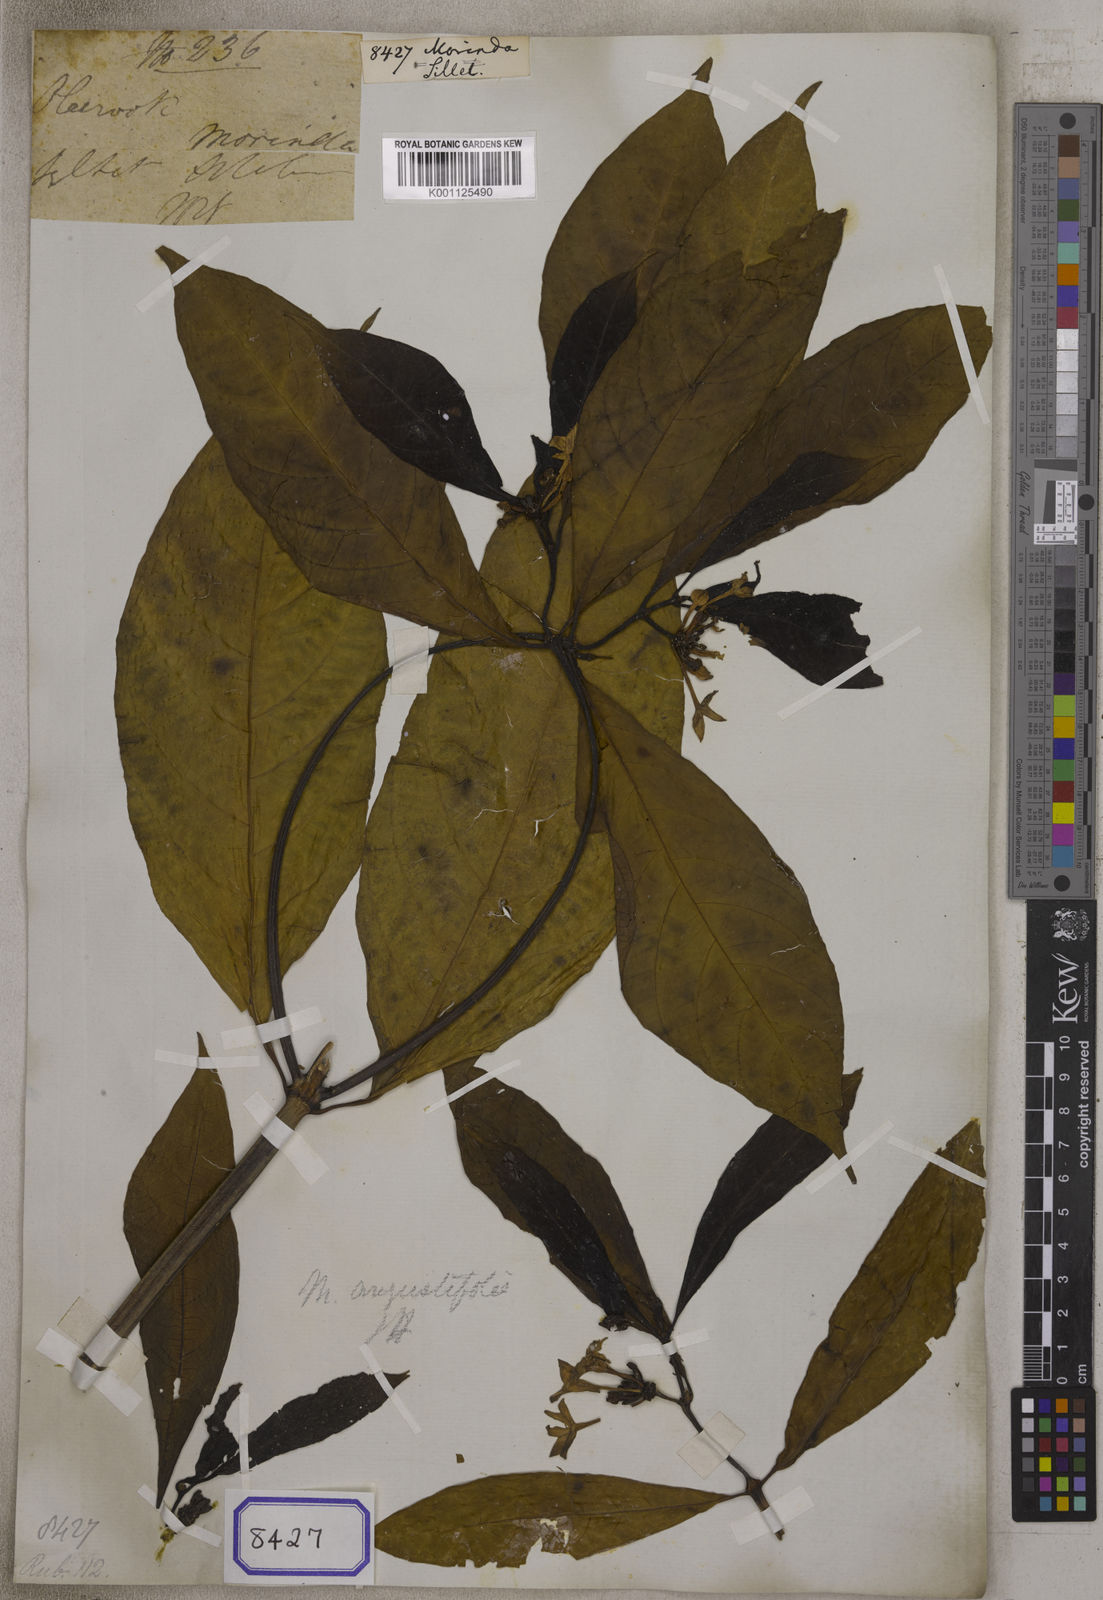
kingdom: Plantae
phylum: Tracheophyta
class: Magnoliopsida
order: Gentianales
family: Rubiaceae
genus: Morinda
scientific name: Morinda
